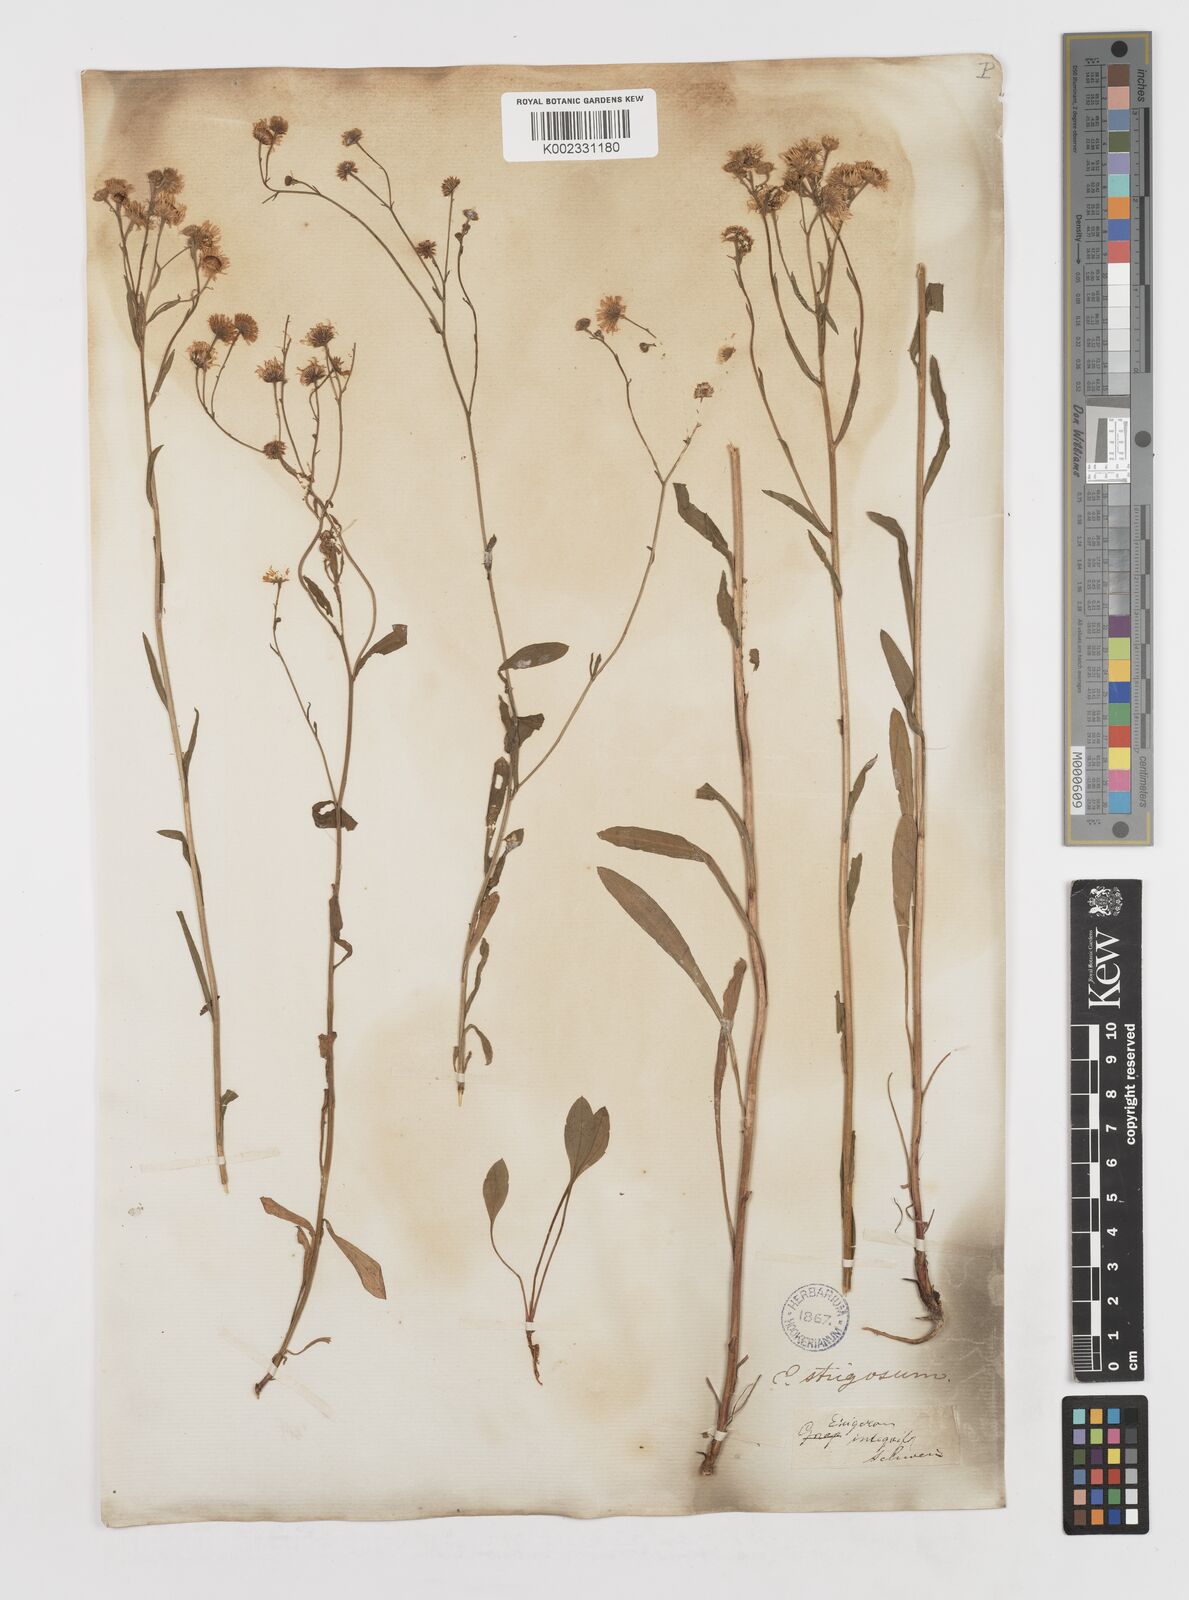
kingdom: Plantae
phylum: Tracheophyta
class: Magnoliopsida
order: Asterales
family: Asteraceae
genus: Erigeron
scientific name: Erigeron strigosus
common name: Common eastern fleabane
